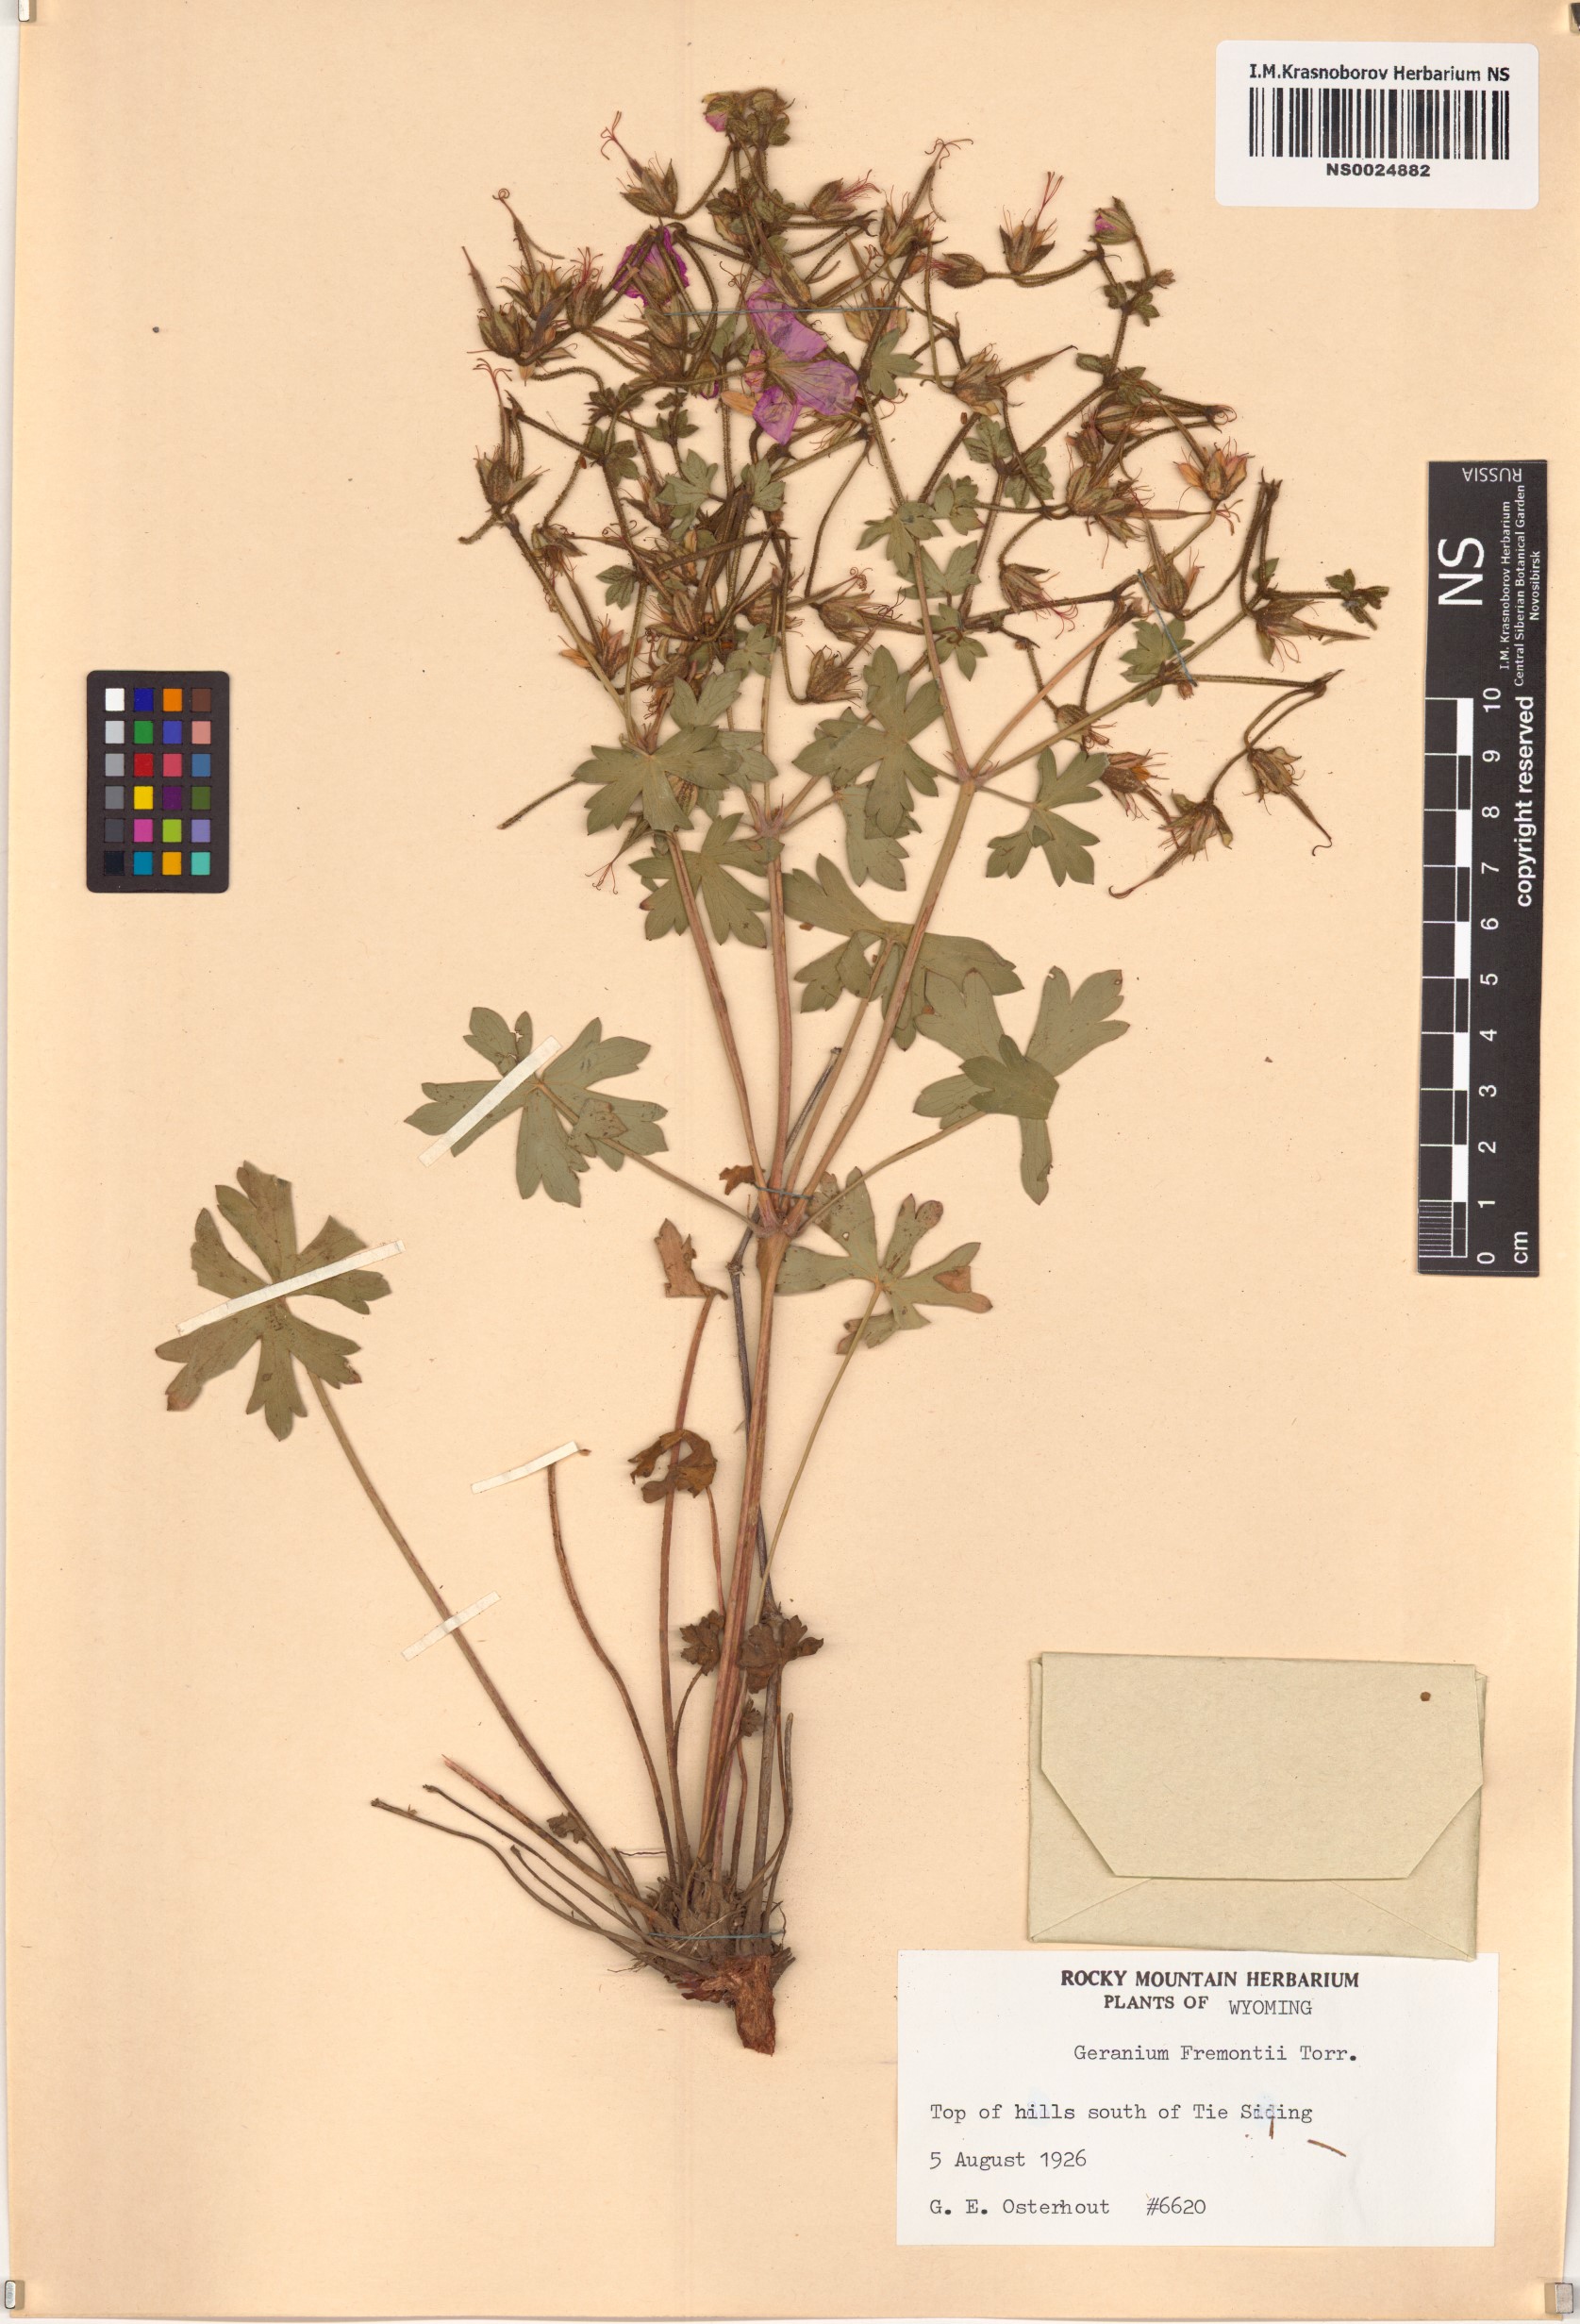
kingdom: Plantae
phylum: Tracheophyta
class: Magnoliopsida
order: Geraniales
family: Geraniaceae
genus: Geranium
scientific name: Geranium caespitosum
